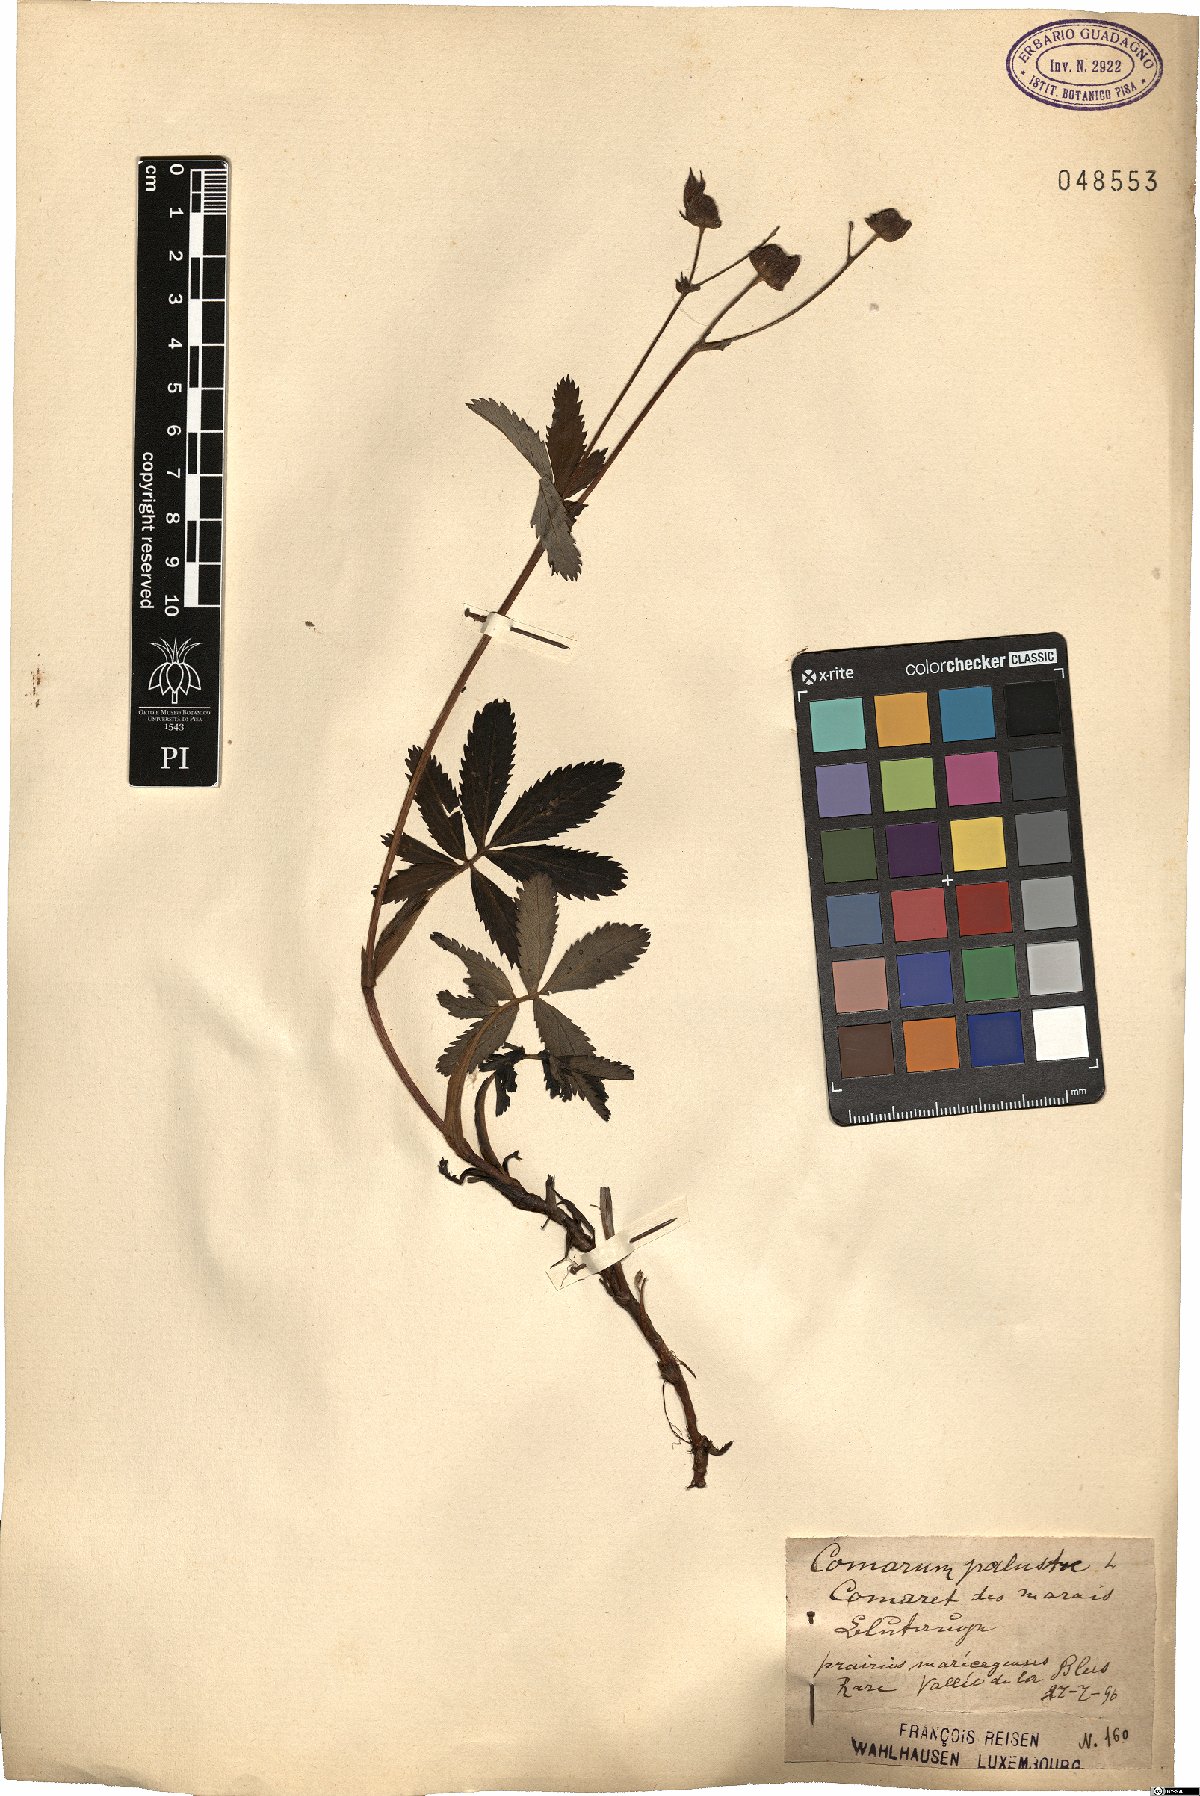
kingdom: Plantae
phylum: Tracheophyta
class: Magnoliopsida
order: Rosales
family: Rosaceae
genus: Comarum
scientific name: Comarum palustre
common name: Marsh cinquefoil
